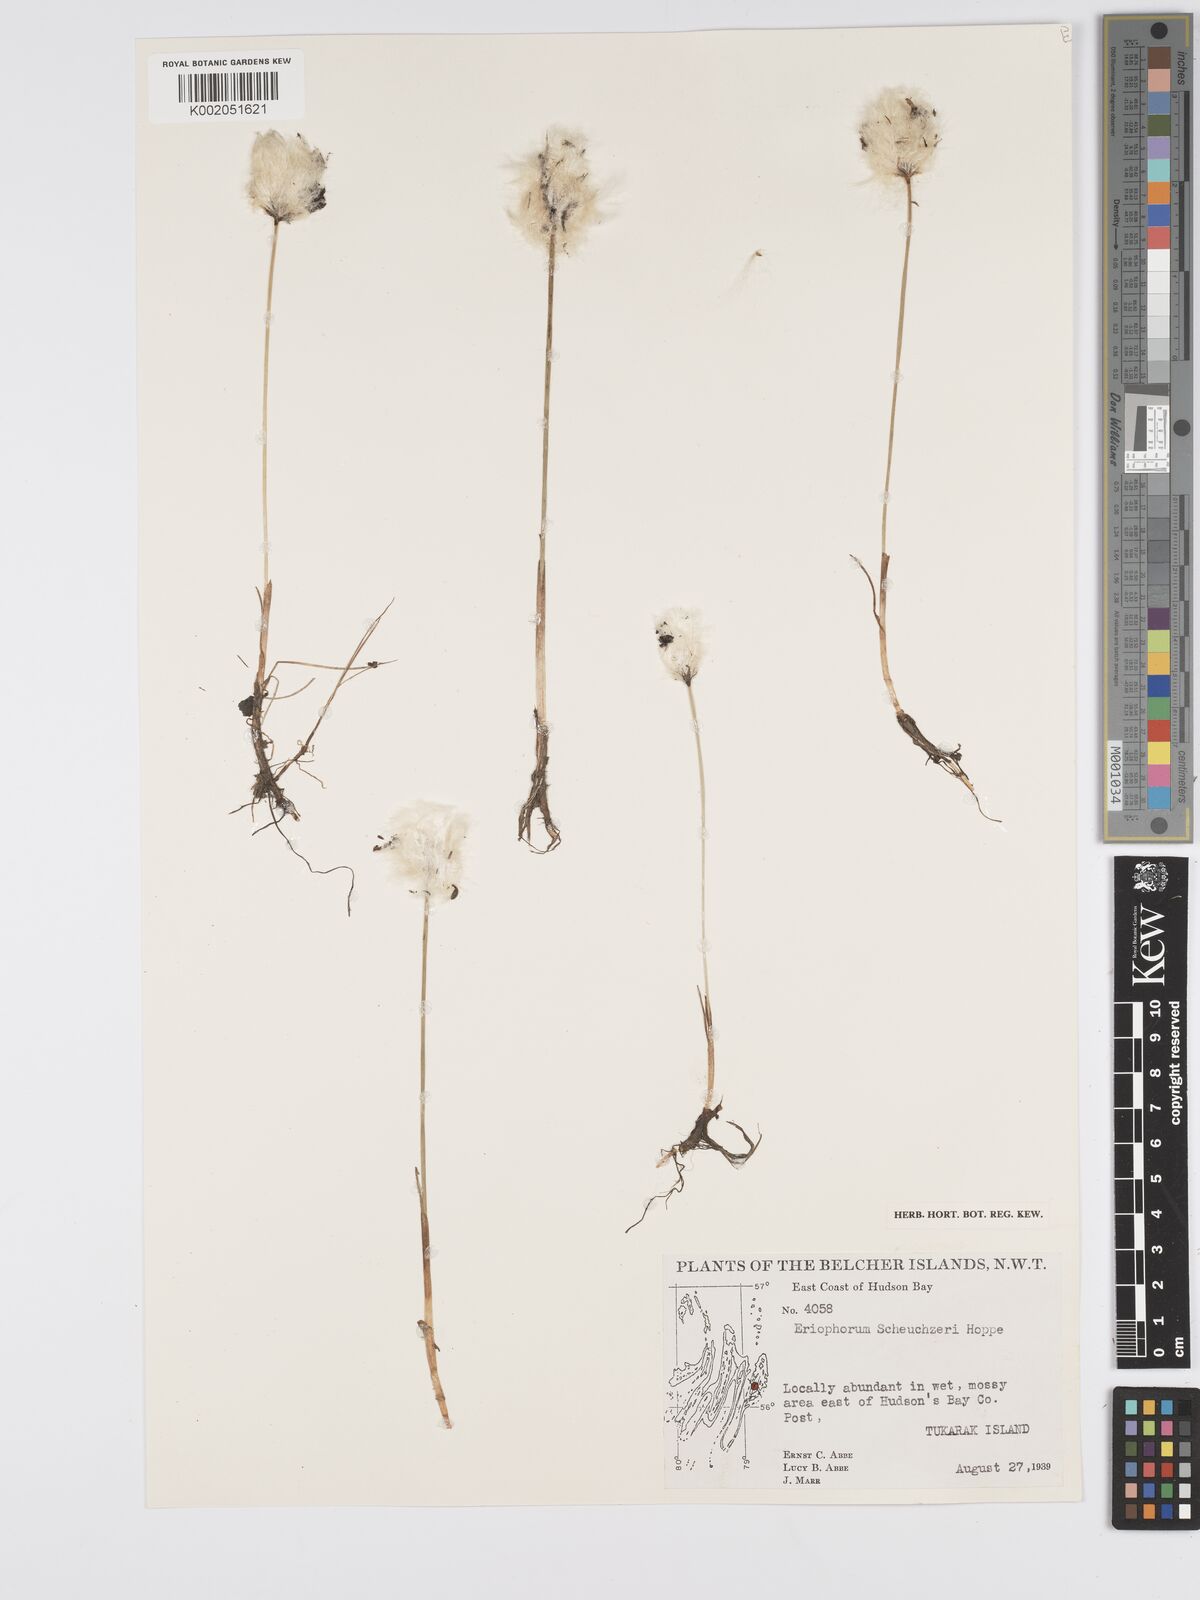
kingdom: Plantae
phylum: Tracheophyta
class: Liliopsida
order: Poales
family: Cyperaceae
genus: Eriophorum
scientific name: Eriophorum scheuchzeri
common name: Scheuchzer's cottongrass
